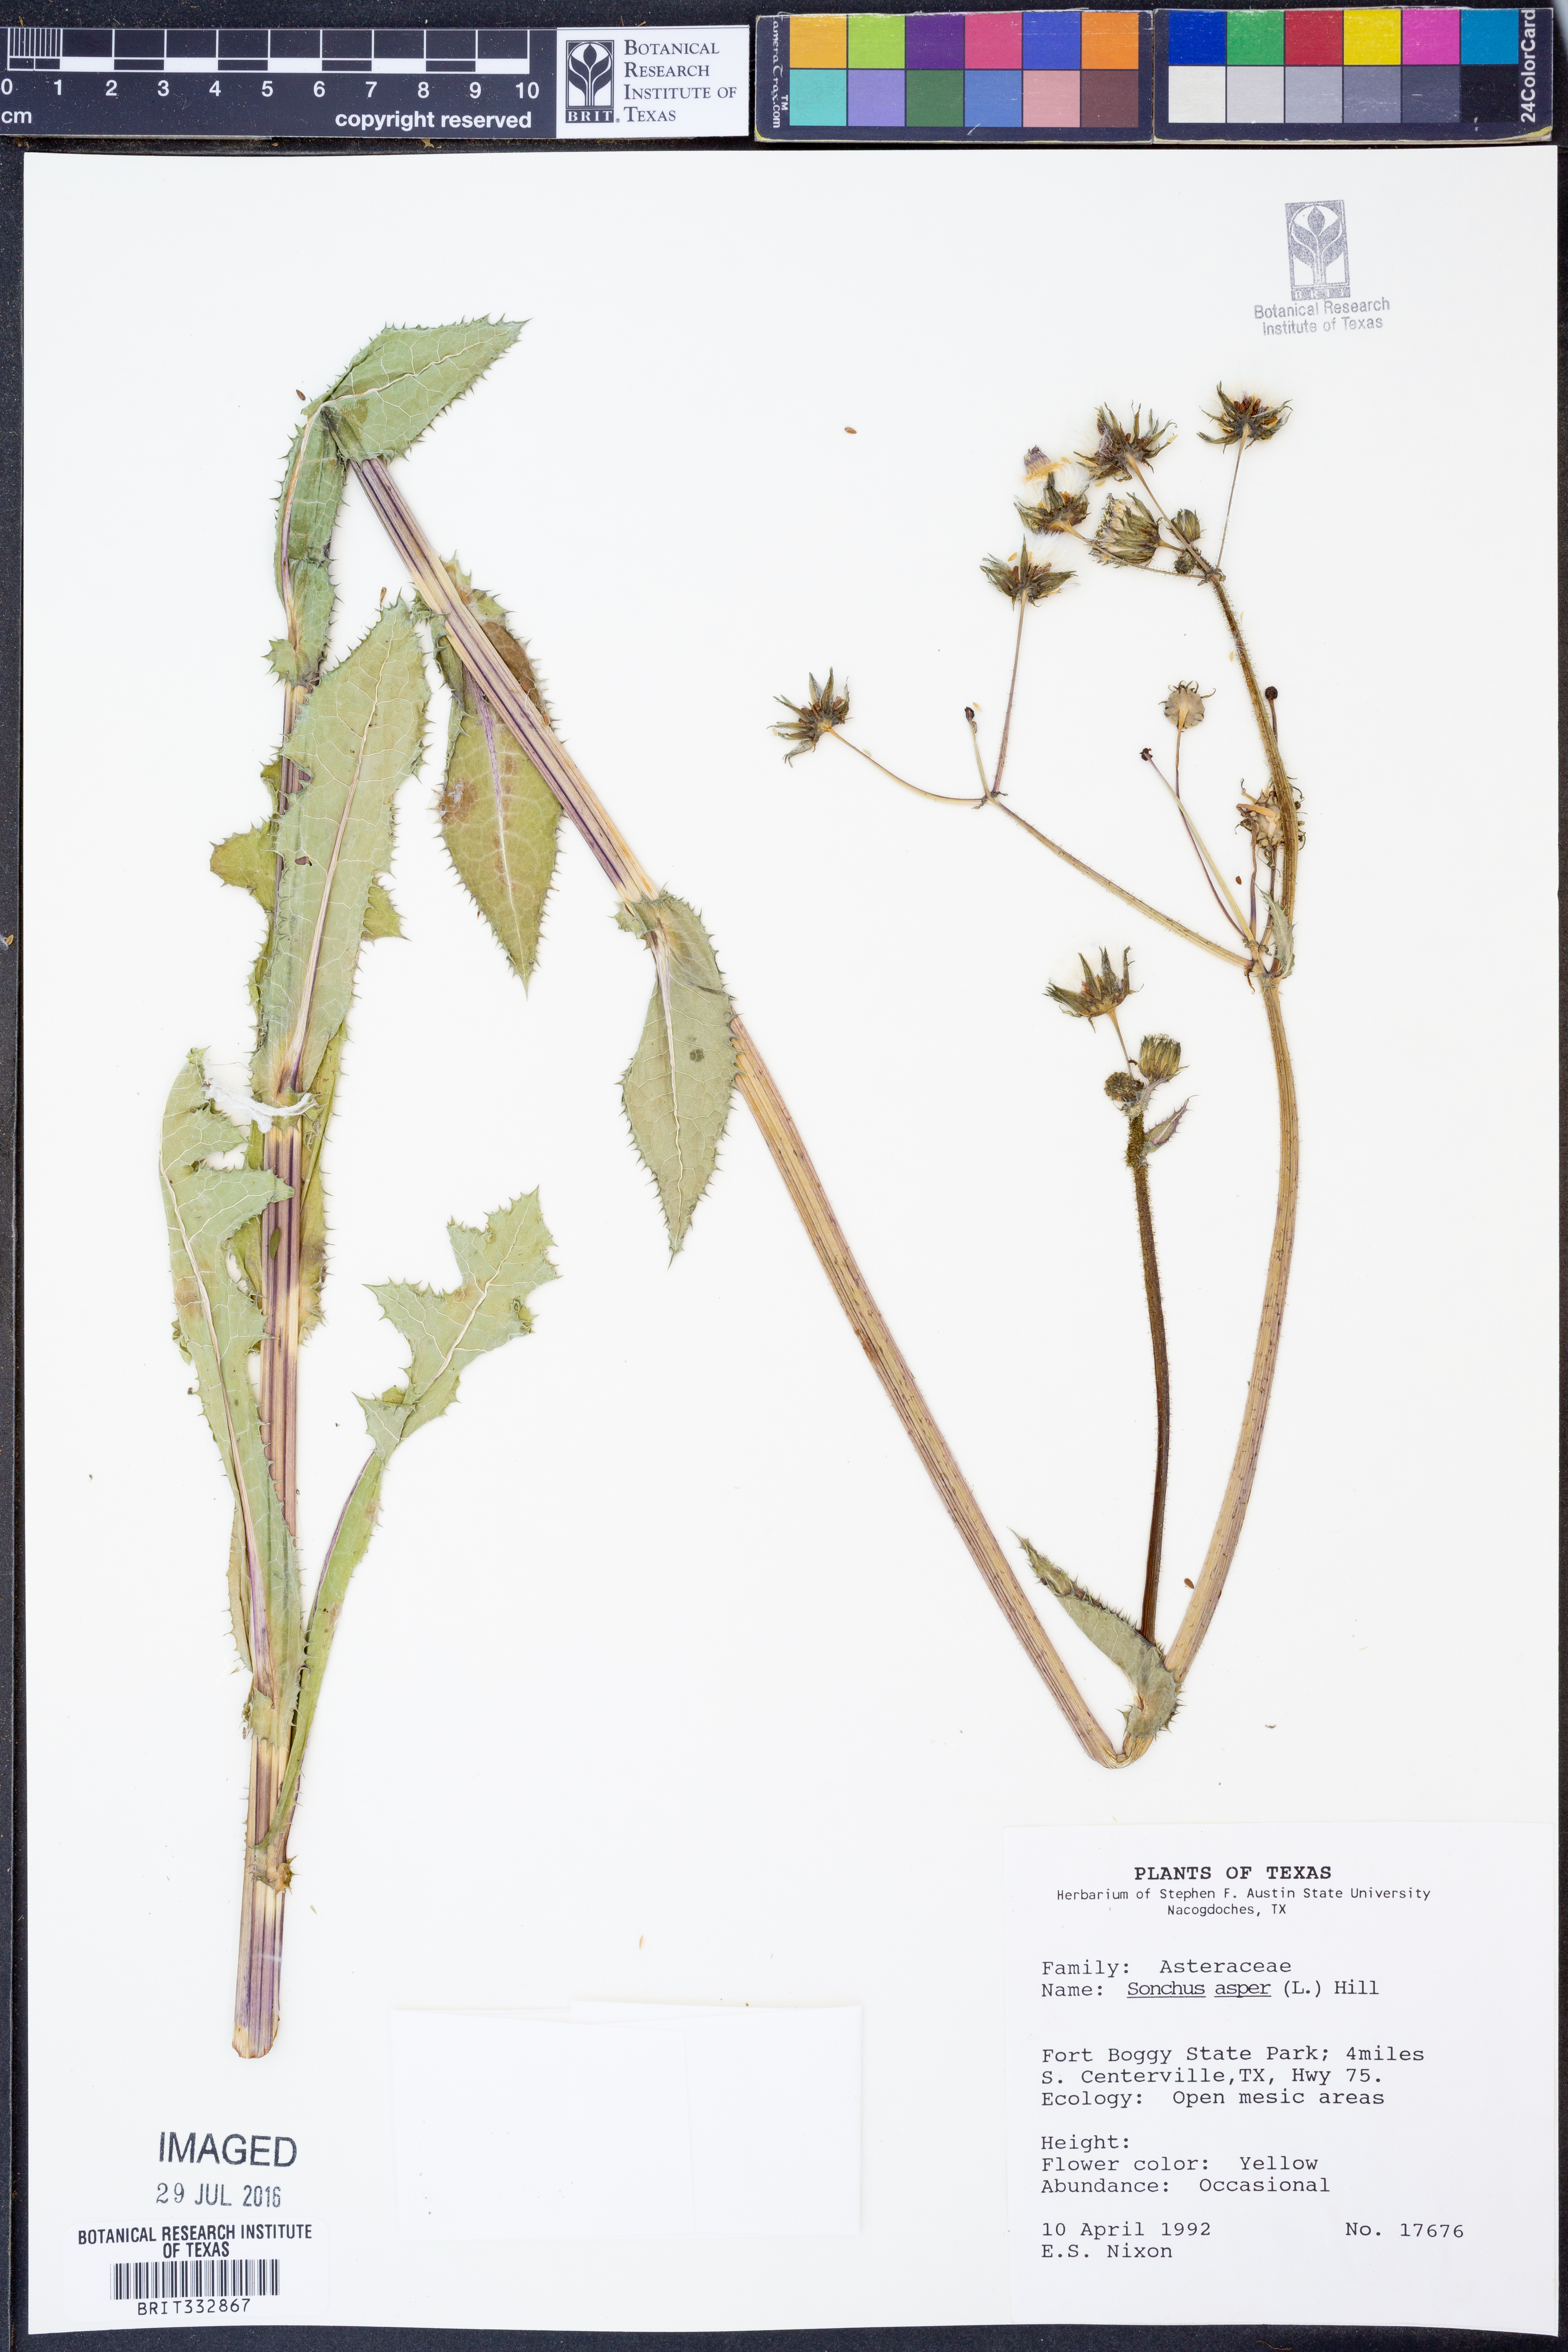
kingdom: Plantae
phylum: Tracheophyta
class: Magnoliopsida
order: Asterales
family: Asteraceae
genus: Sonchus
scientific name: Sonchus asper
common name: Prickly sow-thistle
